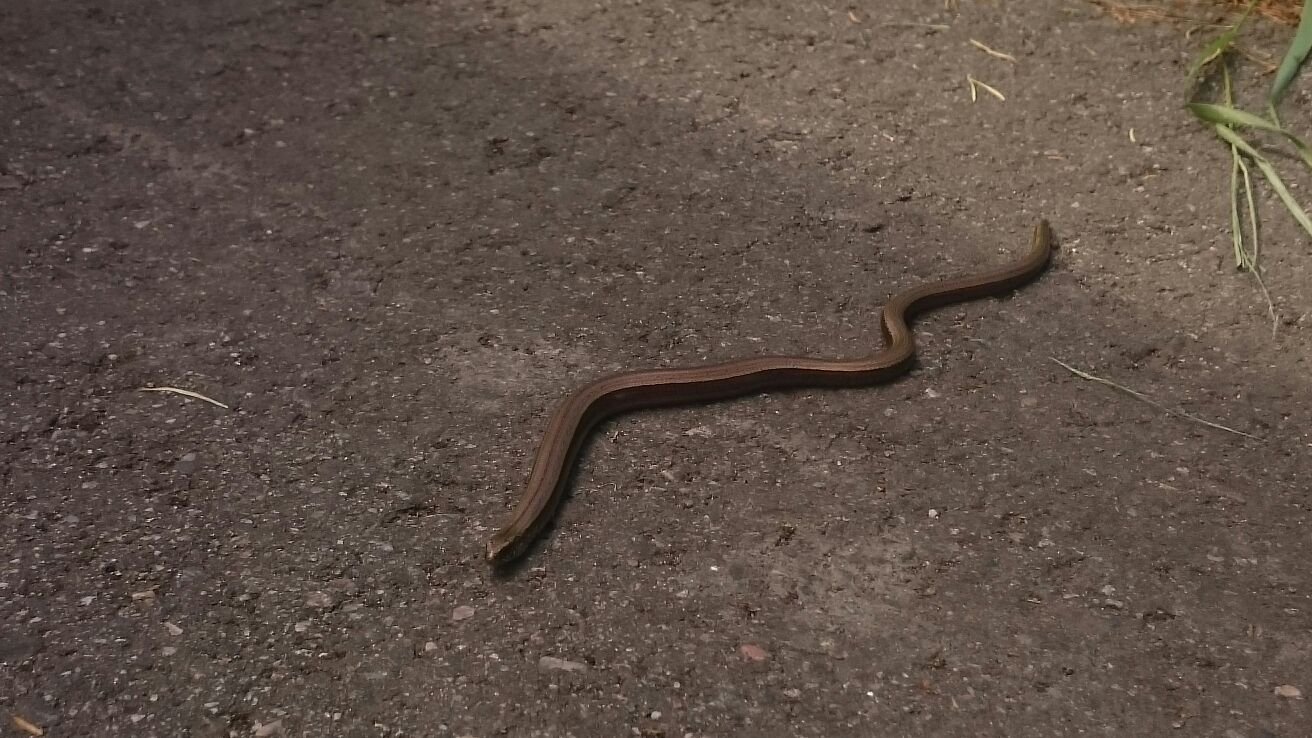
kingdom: Animalia
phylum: Chordata
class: Squamata
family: Anguidae
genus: Anguis
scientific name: Anguis colchica
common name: Slow worm
